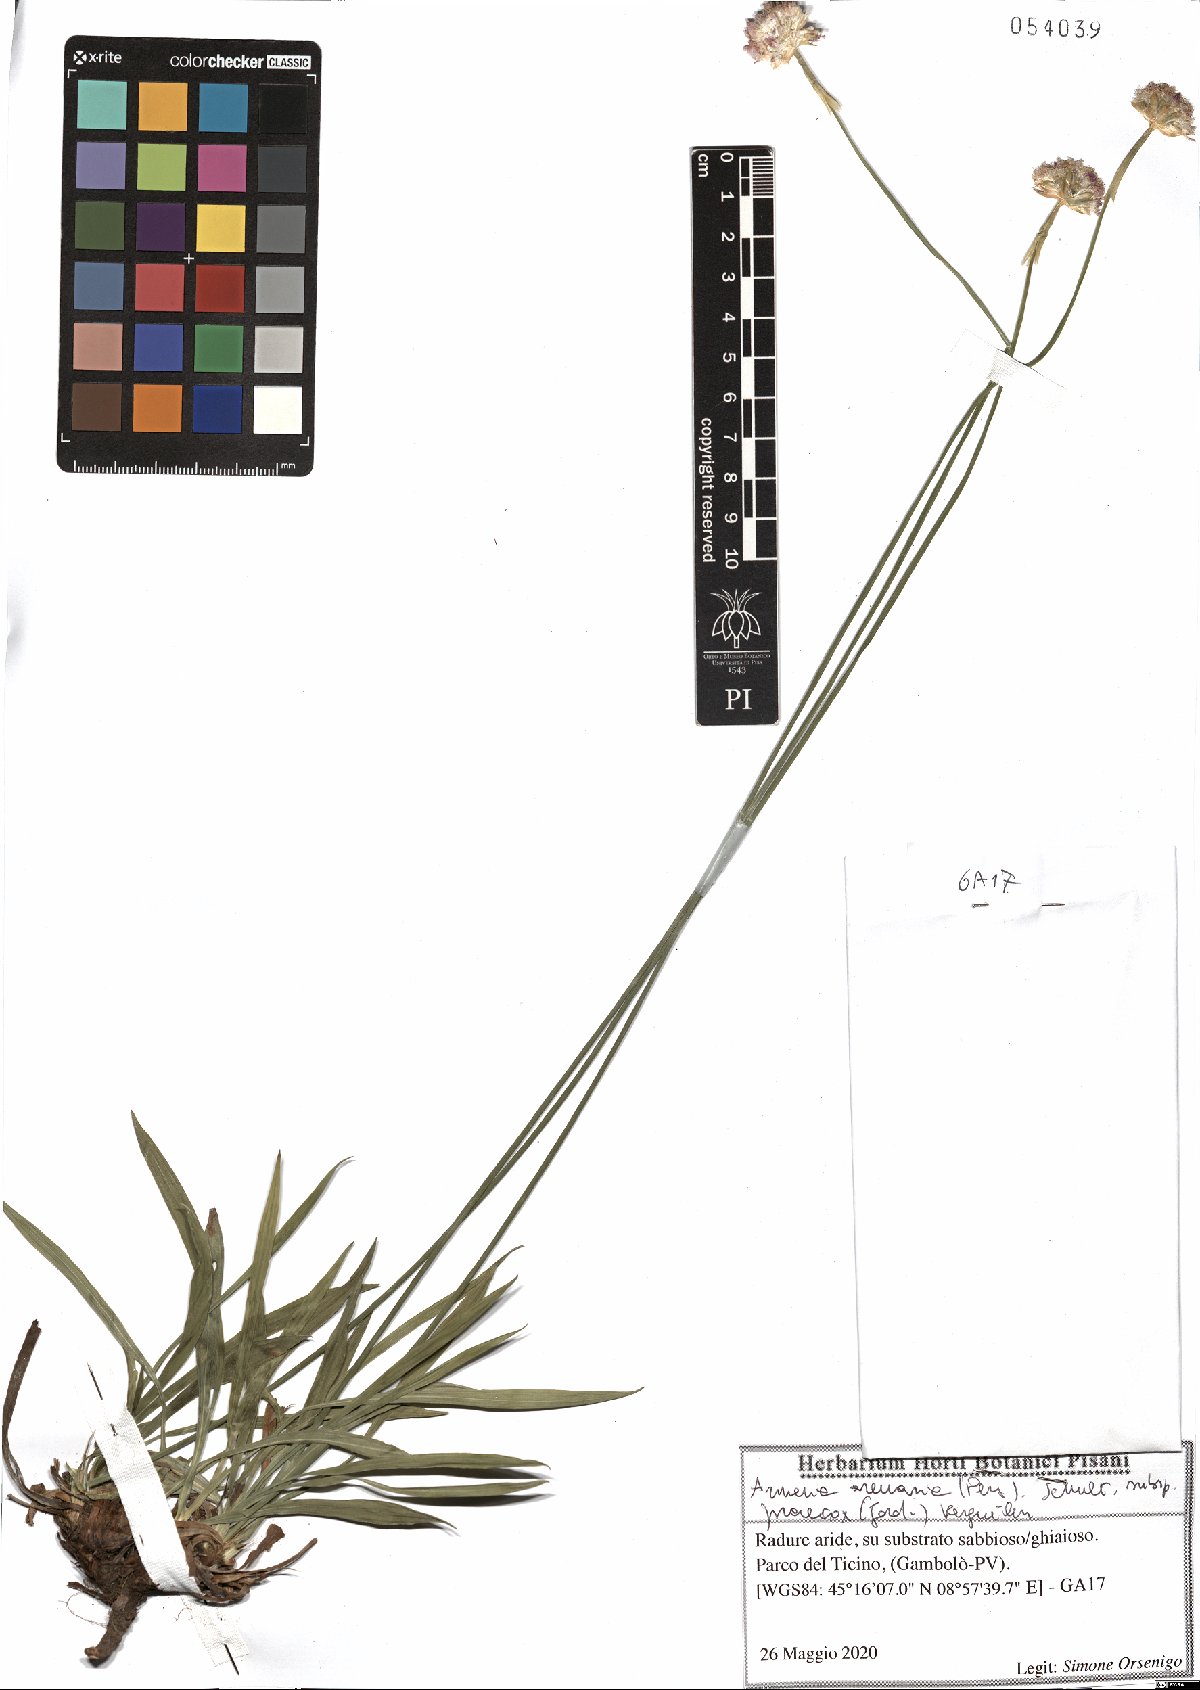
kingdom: Plantae
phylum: Tracheophyta
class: Magnoliopsida
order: Caryophyllales
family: Plumbaginaceae
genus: Armeria
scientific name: Armeria arenaria
